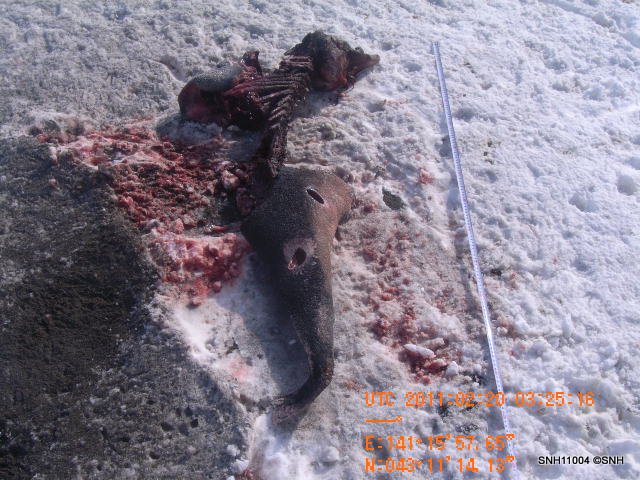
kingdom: Animalia
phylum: Chordata
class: Mammalia
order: Cetacea
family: Phocoenidae
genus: Phocoena
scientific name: Phocoena phocoena
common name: Harbour porpoise
